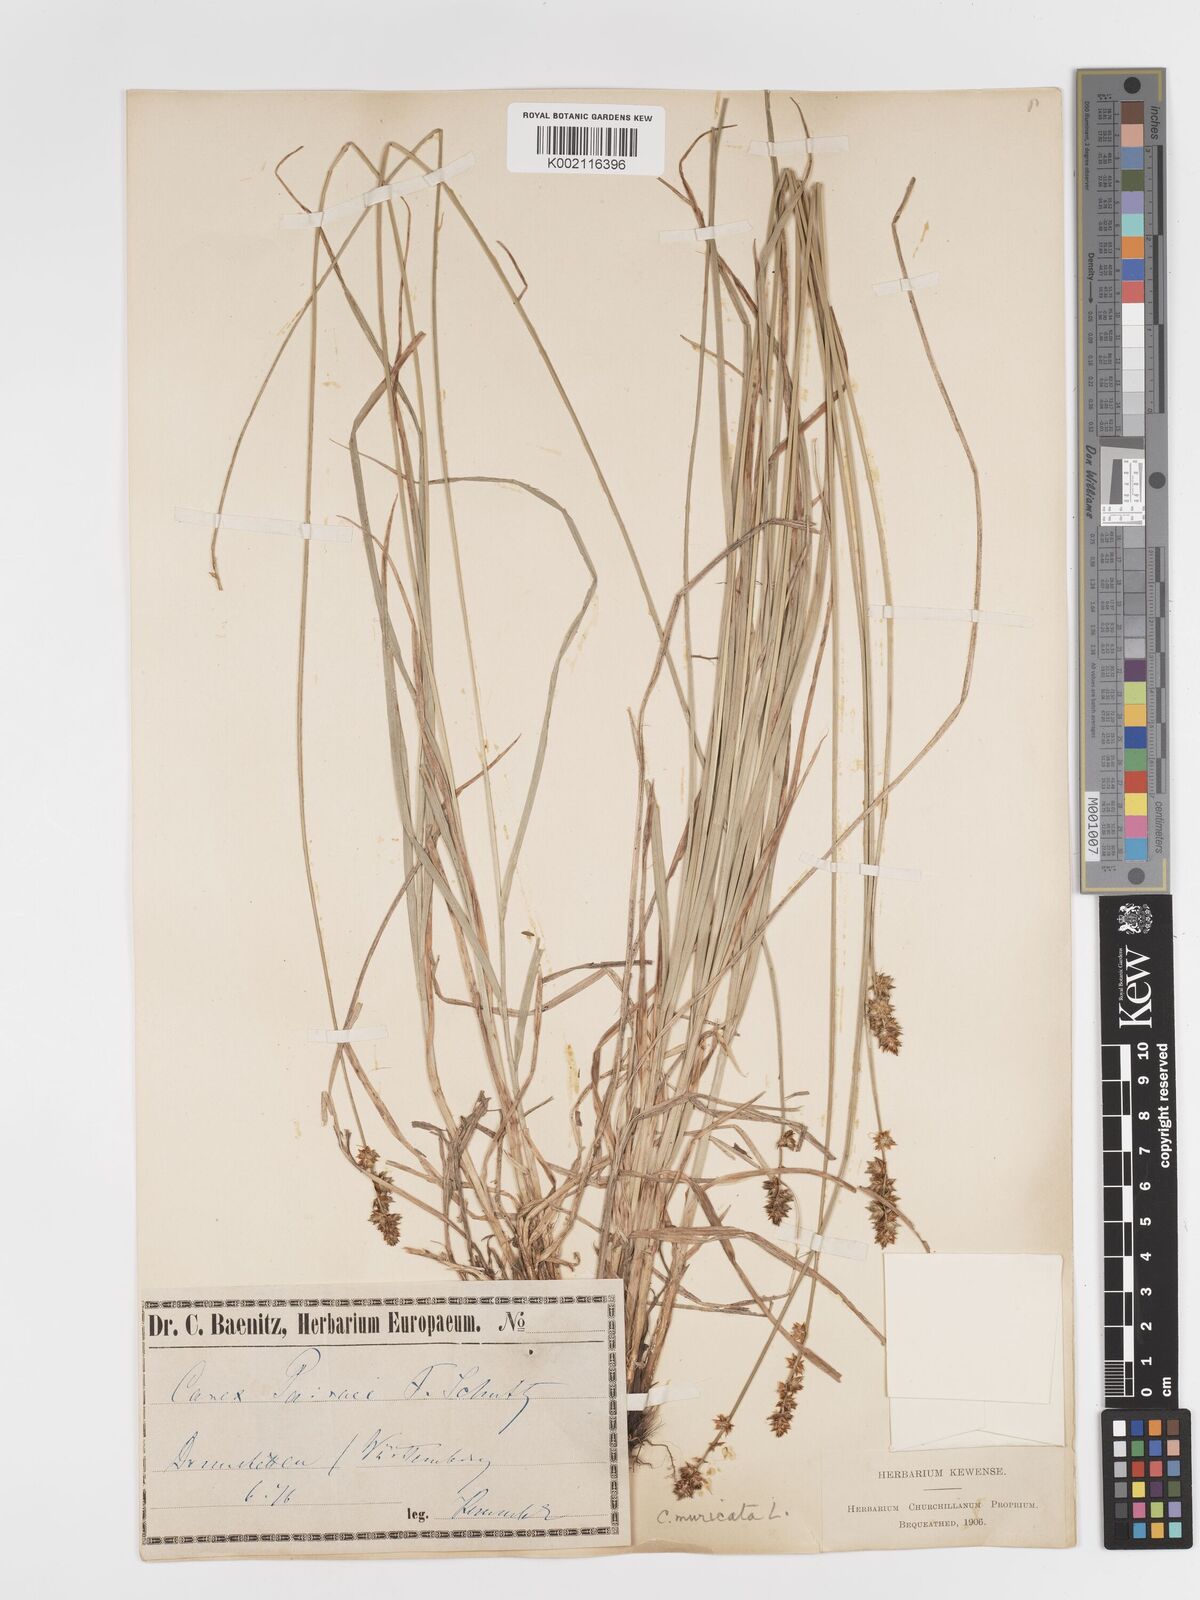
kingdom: Plantae
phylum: Tracheophyta
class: Liliopsida
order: Poales
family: Cyperaceae
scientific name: Cyperaceae
